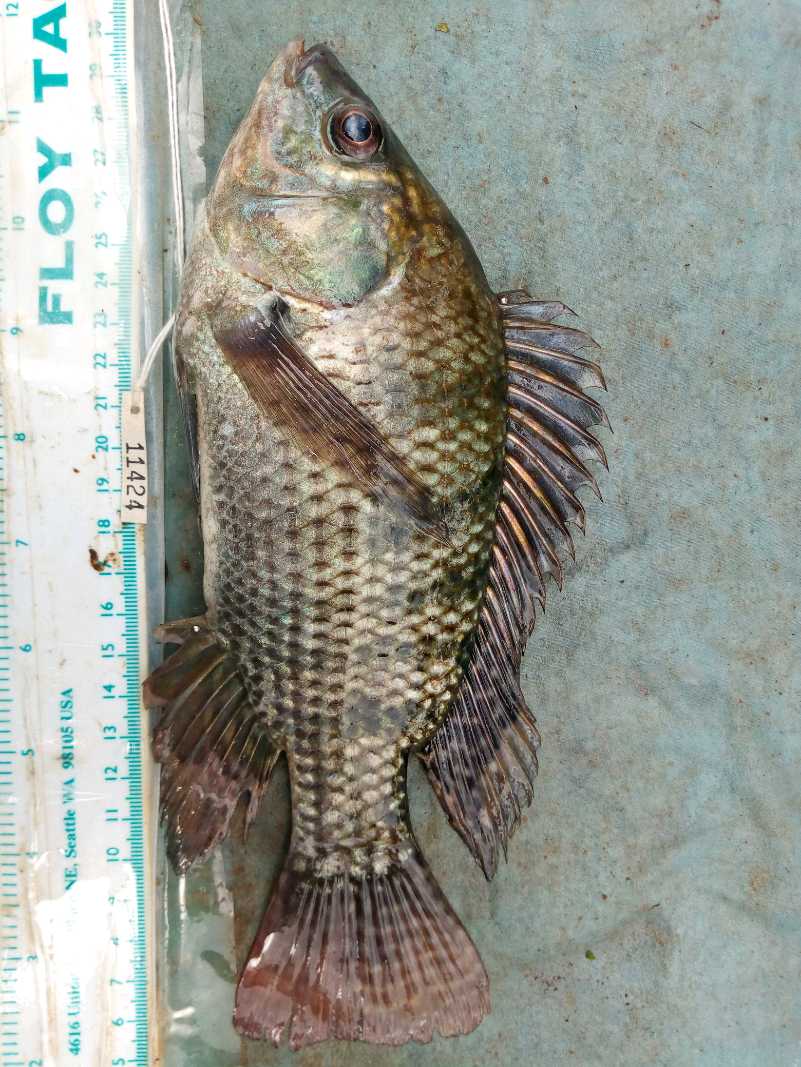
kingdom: Animalia
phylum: Chordata
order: Perciformes
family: Cichlidae
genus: Oreochromis
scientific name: Oreochromis niloticus
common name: Nile tilapia
